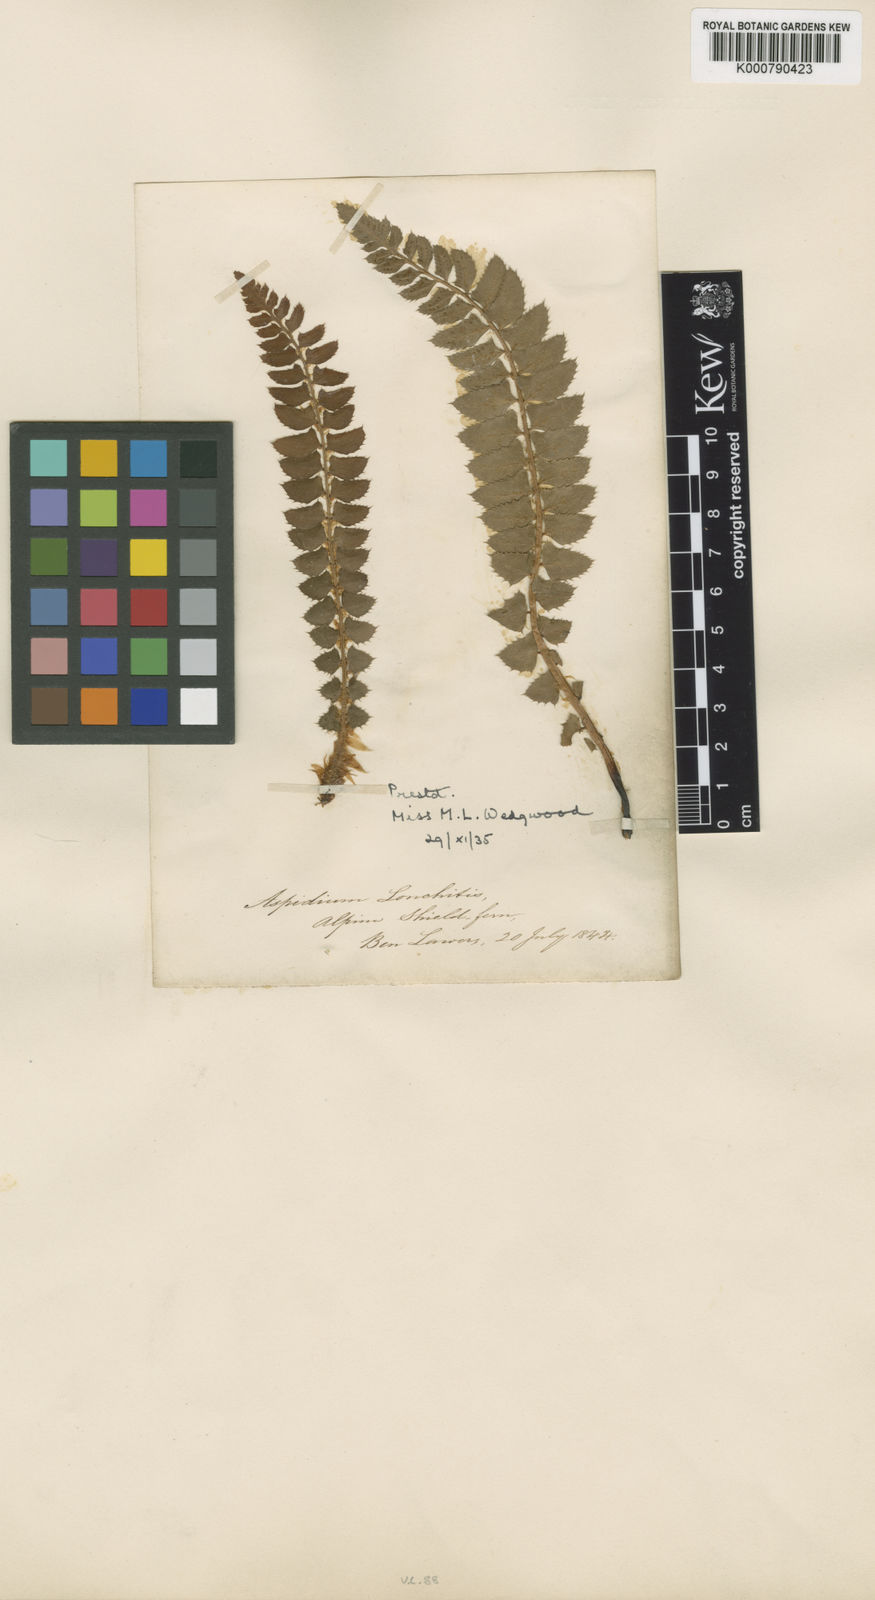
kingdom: Plantae
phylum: Tracheophyta
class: Polypodiopsida
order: Polypodiales
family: Dryopteridaceae
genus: Polystichum
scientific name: Polystichum
